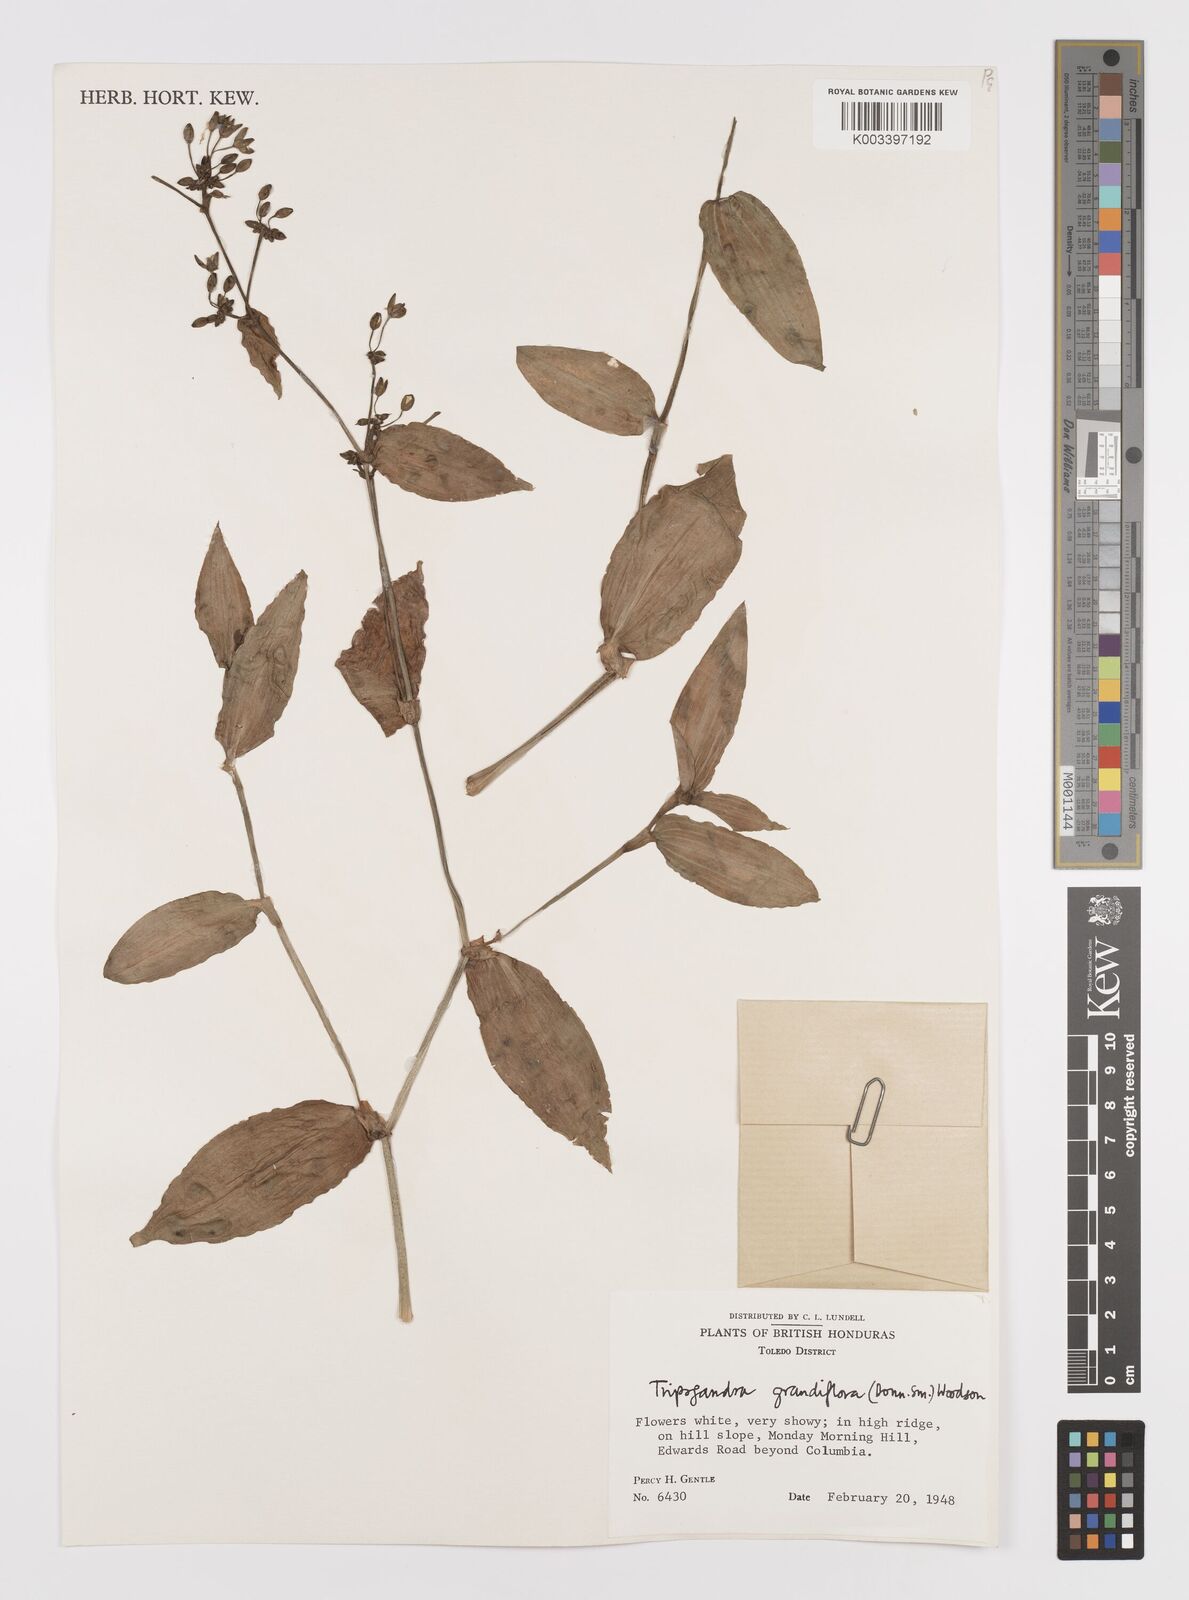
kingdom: Plantae
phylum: Tracheophyta
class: Liliopsida
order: Commelinales
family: Commelinaceae
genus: Callisia
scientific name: Callisia grandiflora
